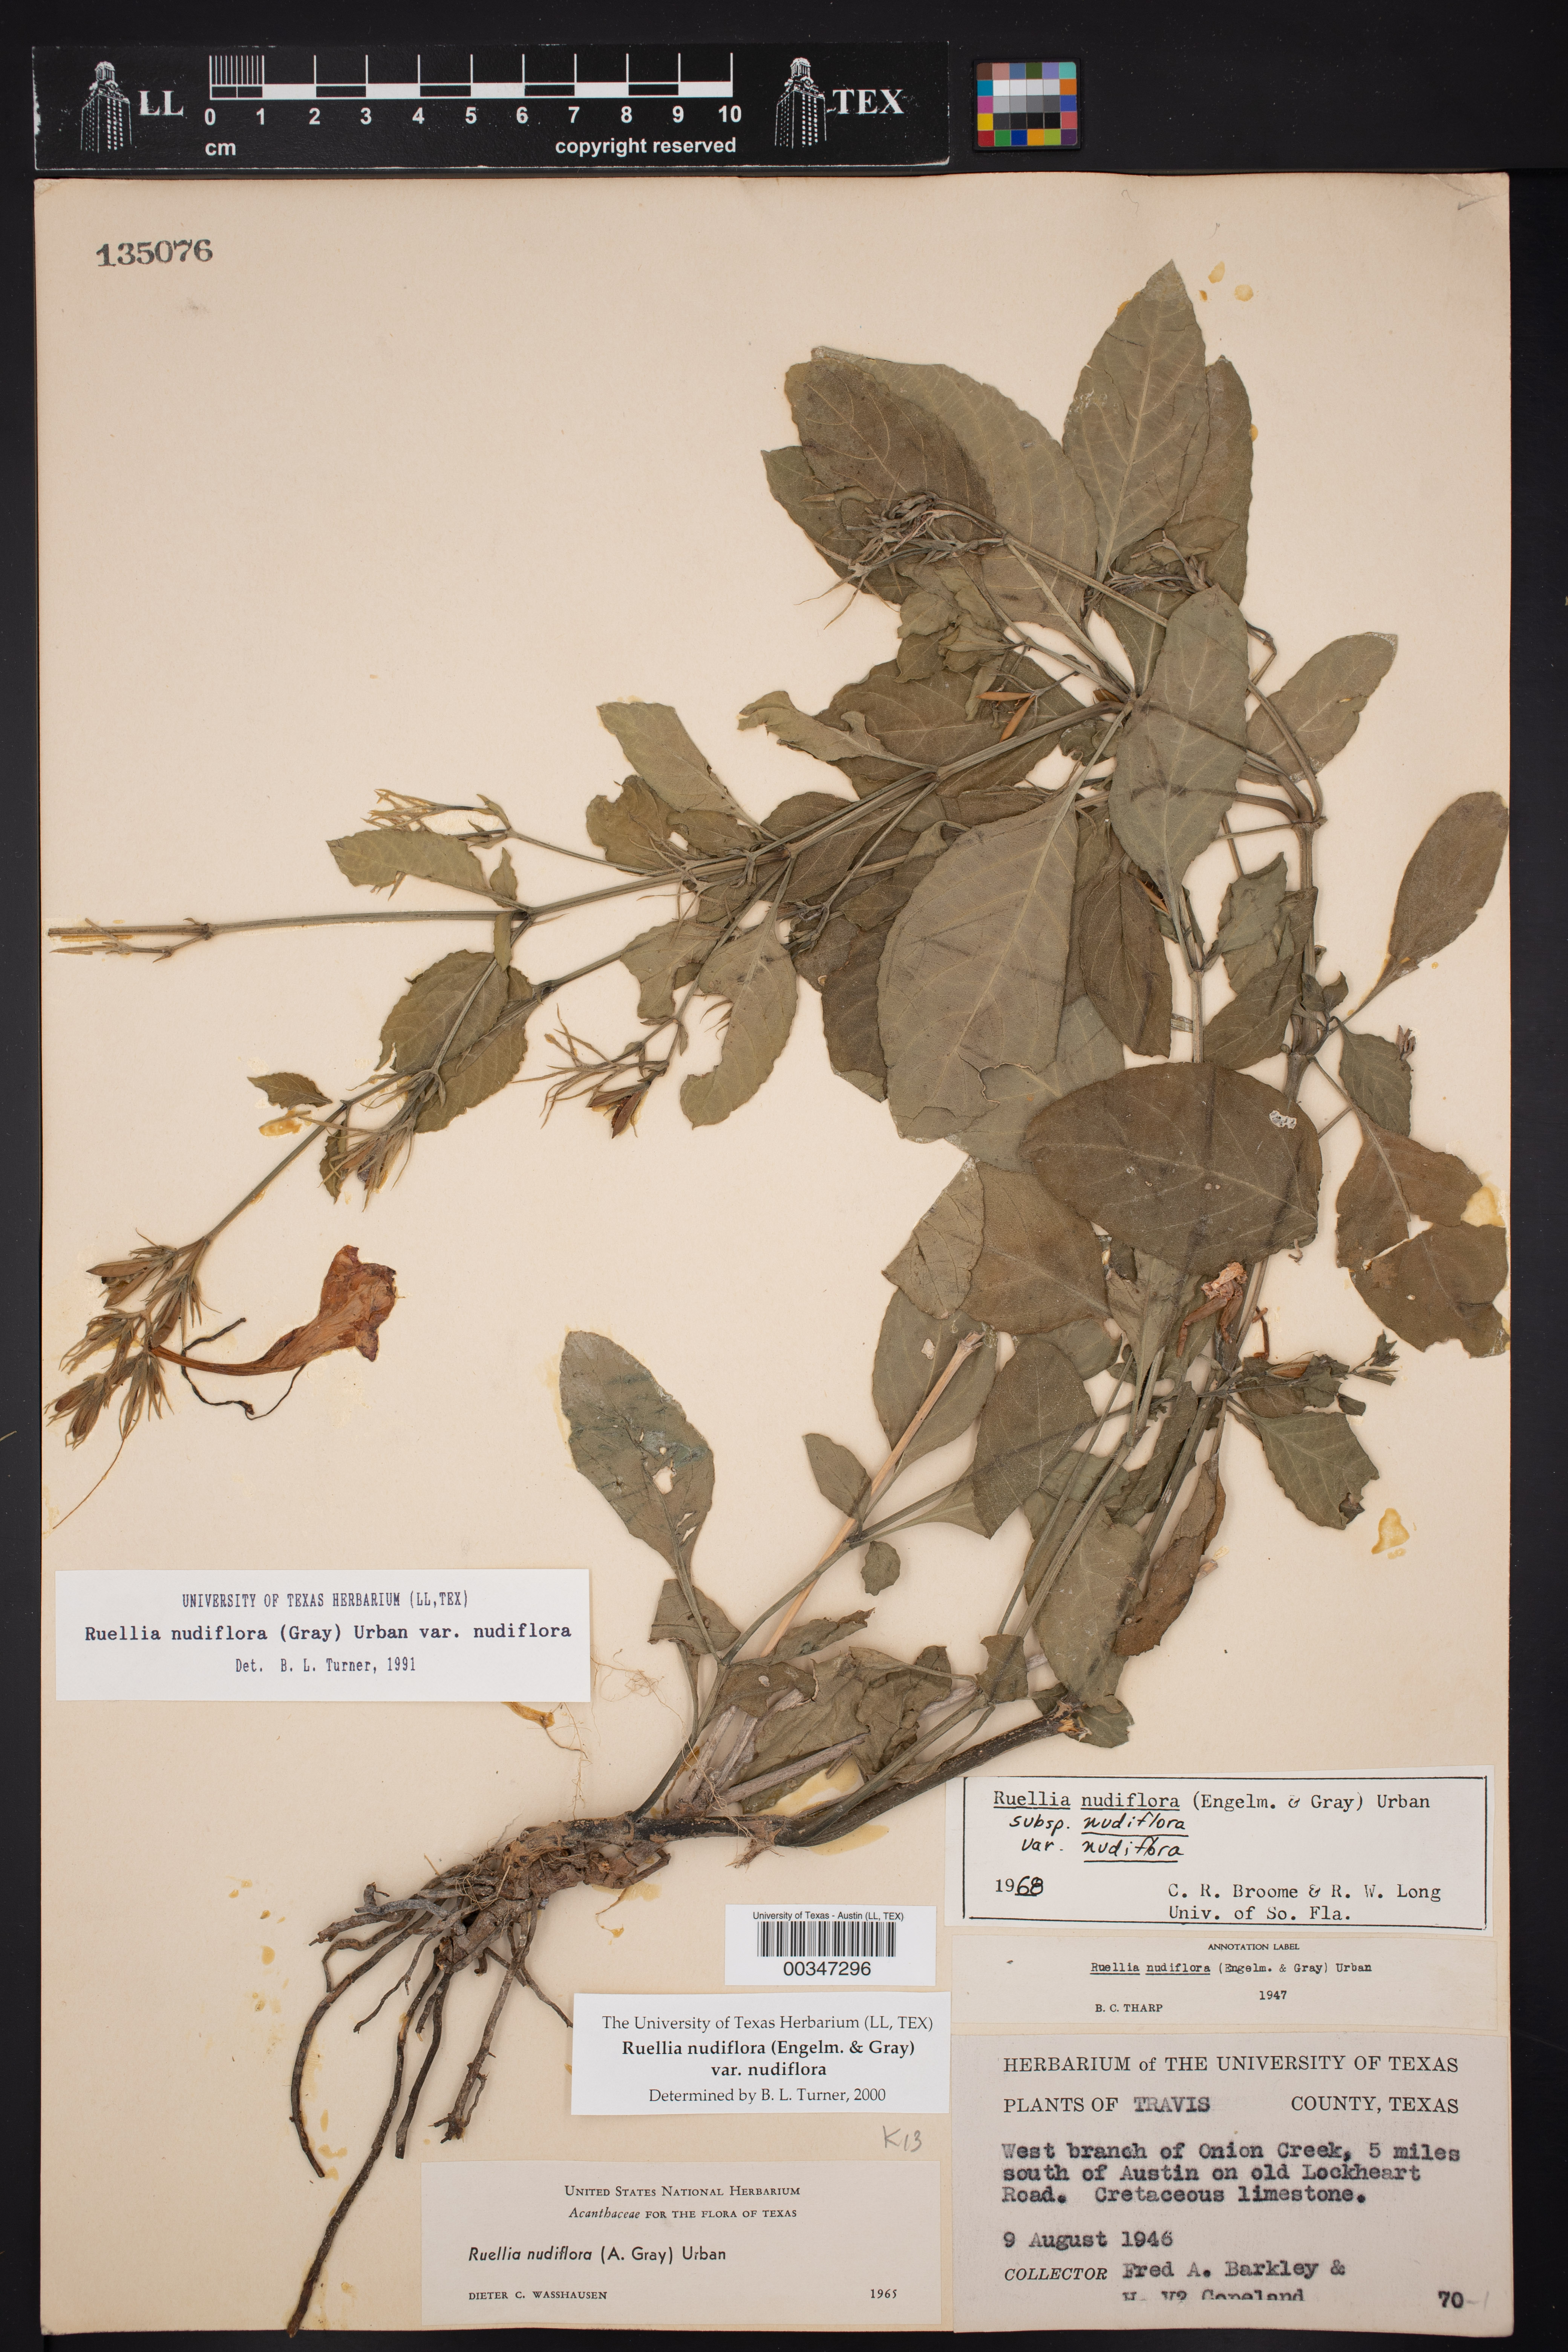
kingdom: Plantae
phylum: Tracheophyta
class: Magnoliopsida
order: Lamiales
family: Acanthaceae
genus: Ruellia
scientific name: Ruellia ciliatiflora
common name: Hairyflower wild petunia
